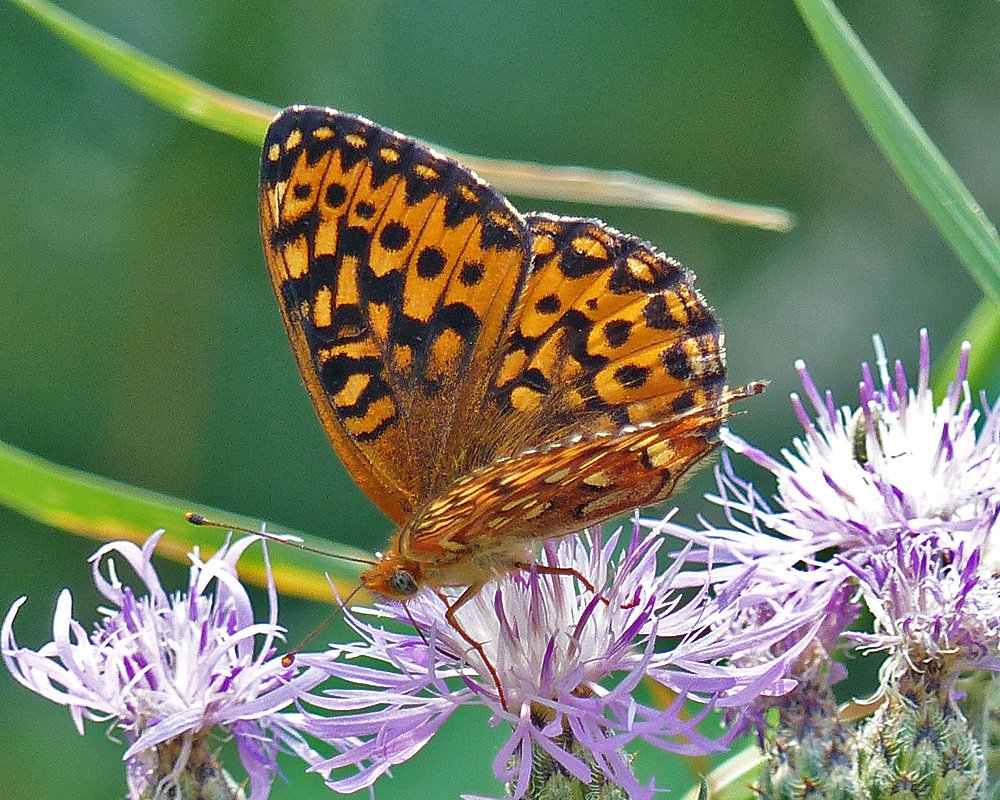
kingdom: Animalia
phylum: Arthropoda
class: Insecta
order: Lepidoptera
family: Nymphalidae
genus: Speyeria
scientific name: Speyeria hydaspe
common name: Hydaspe Fritillary
